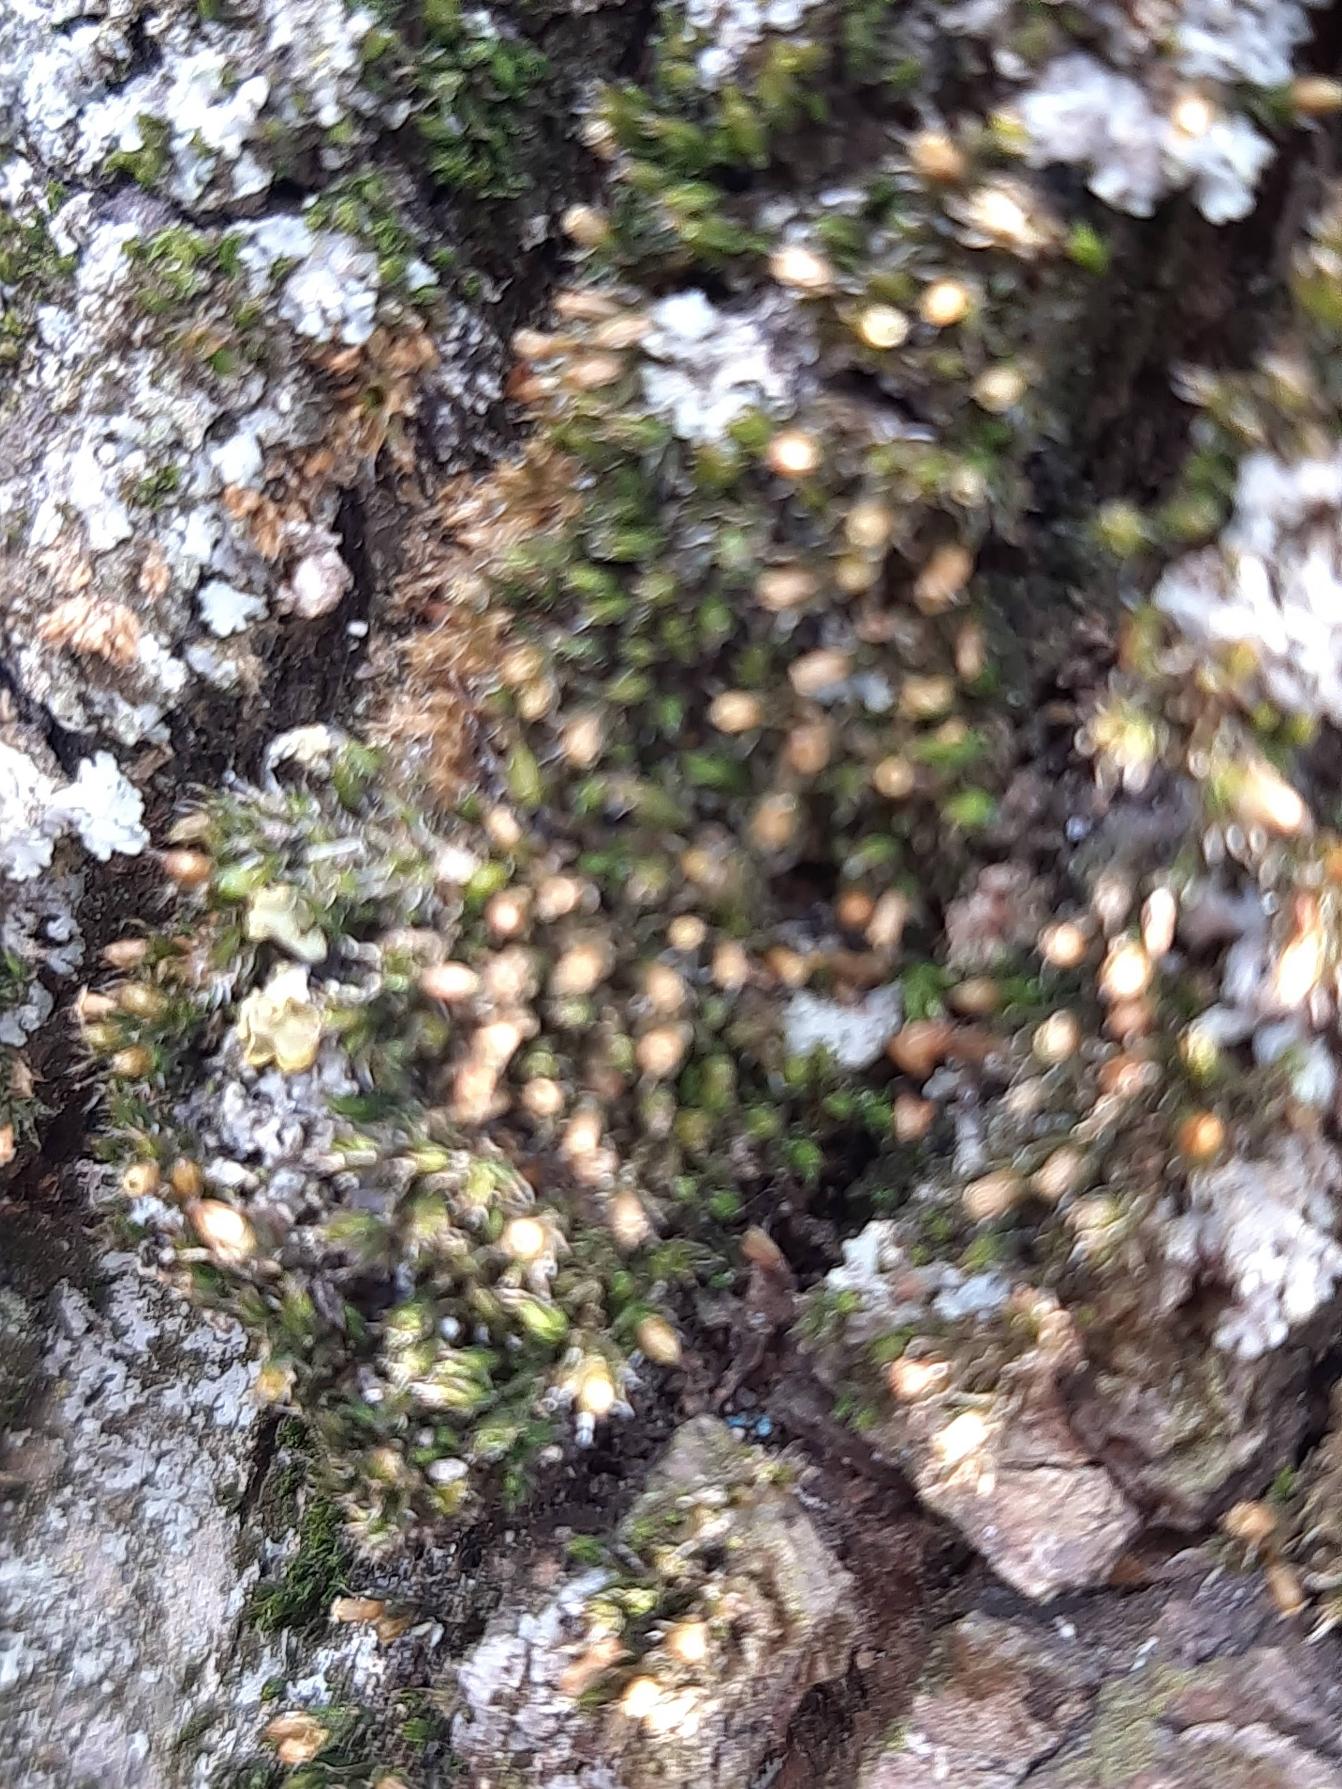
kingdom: Plantae
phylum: Bryophyta
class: Bryopsida
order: Orthotrichales
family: Orthotrichaceae
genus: Orthotrichum
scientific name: Orthotrichum diaphanum
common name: Hårspidset furehætte
